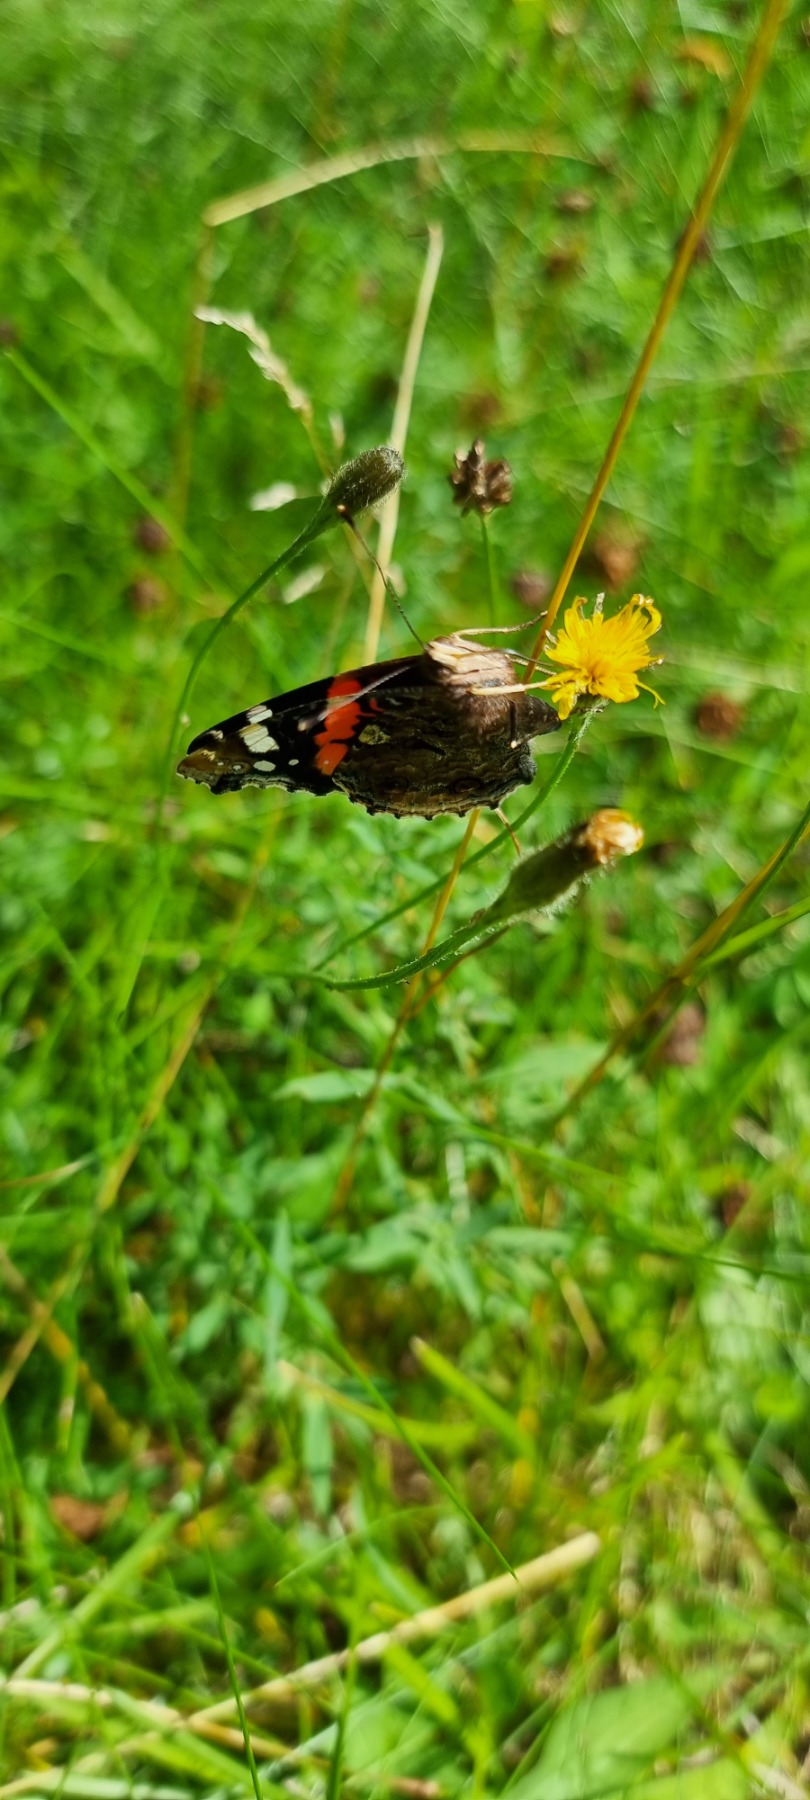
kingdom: Animalia
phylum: Arthropoda
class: Insecta
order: Lepidoptera
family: Nymphalidae
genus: Vanessa
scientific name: Vanessa atalanta
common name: Admiral
